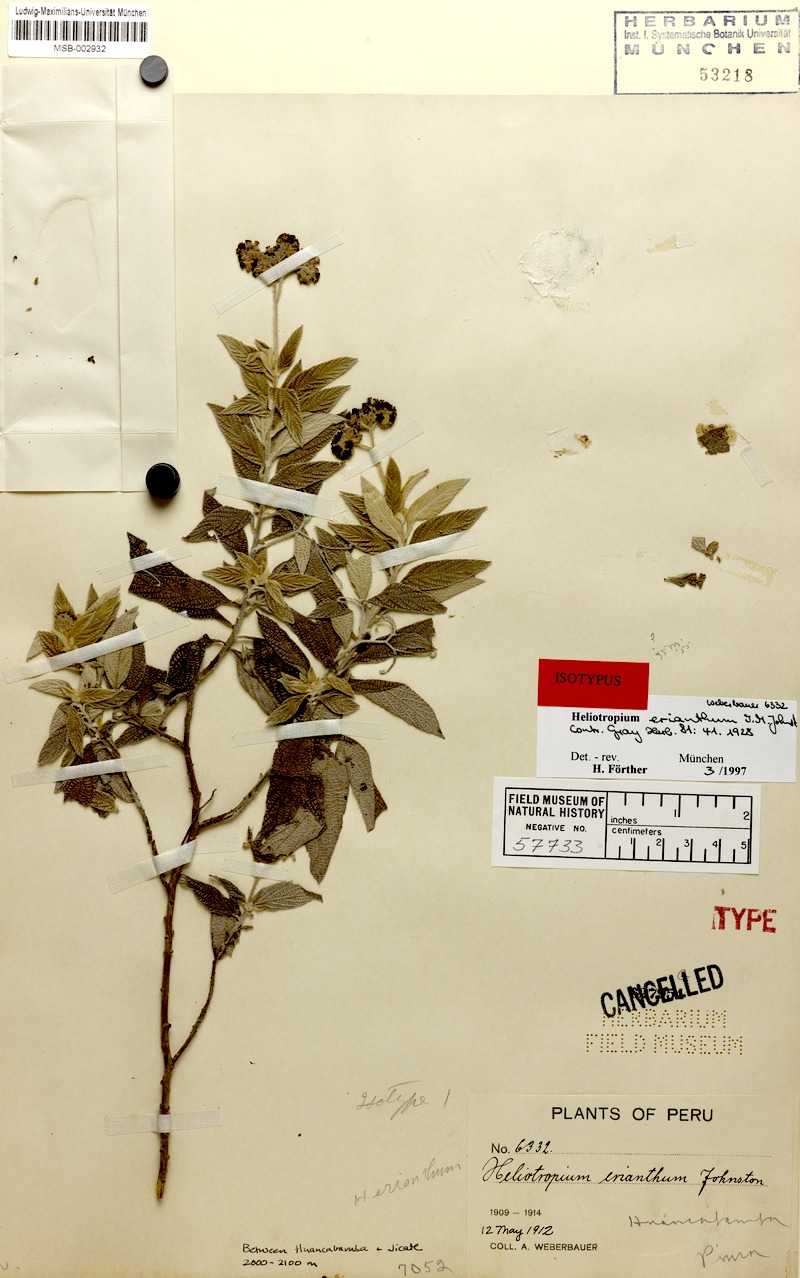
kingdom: Plantae
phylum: Tracheophyta
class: Magnoliopsida
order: Boraginales
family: Heliotropiaceae
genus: Heliotropium
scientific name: Heliotropium erianthum
